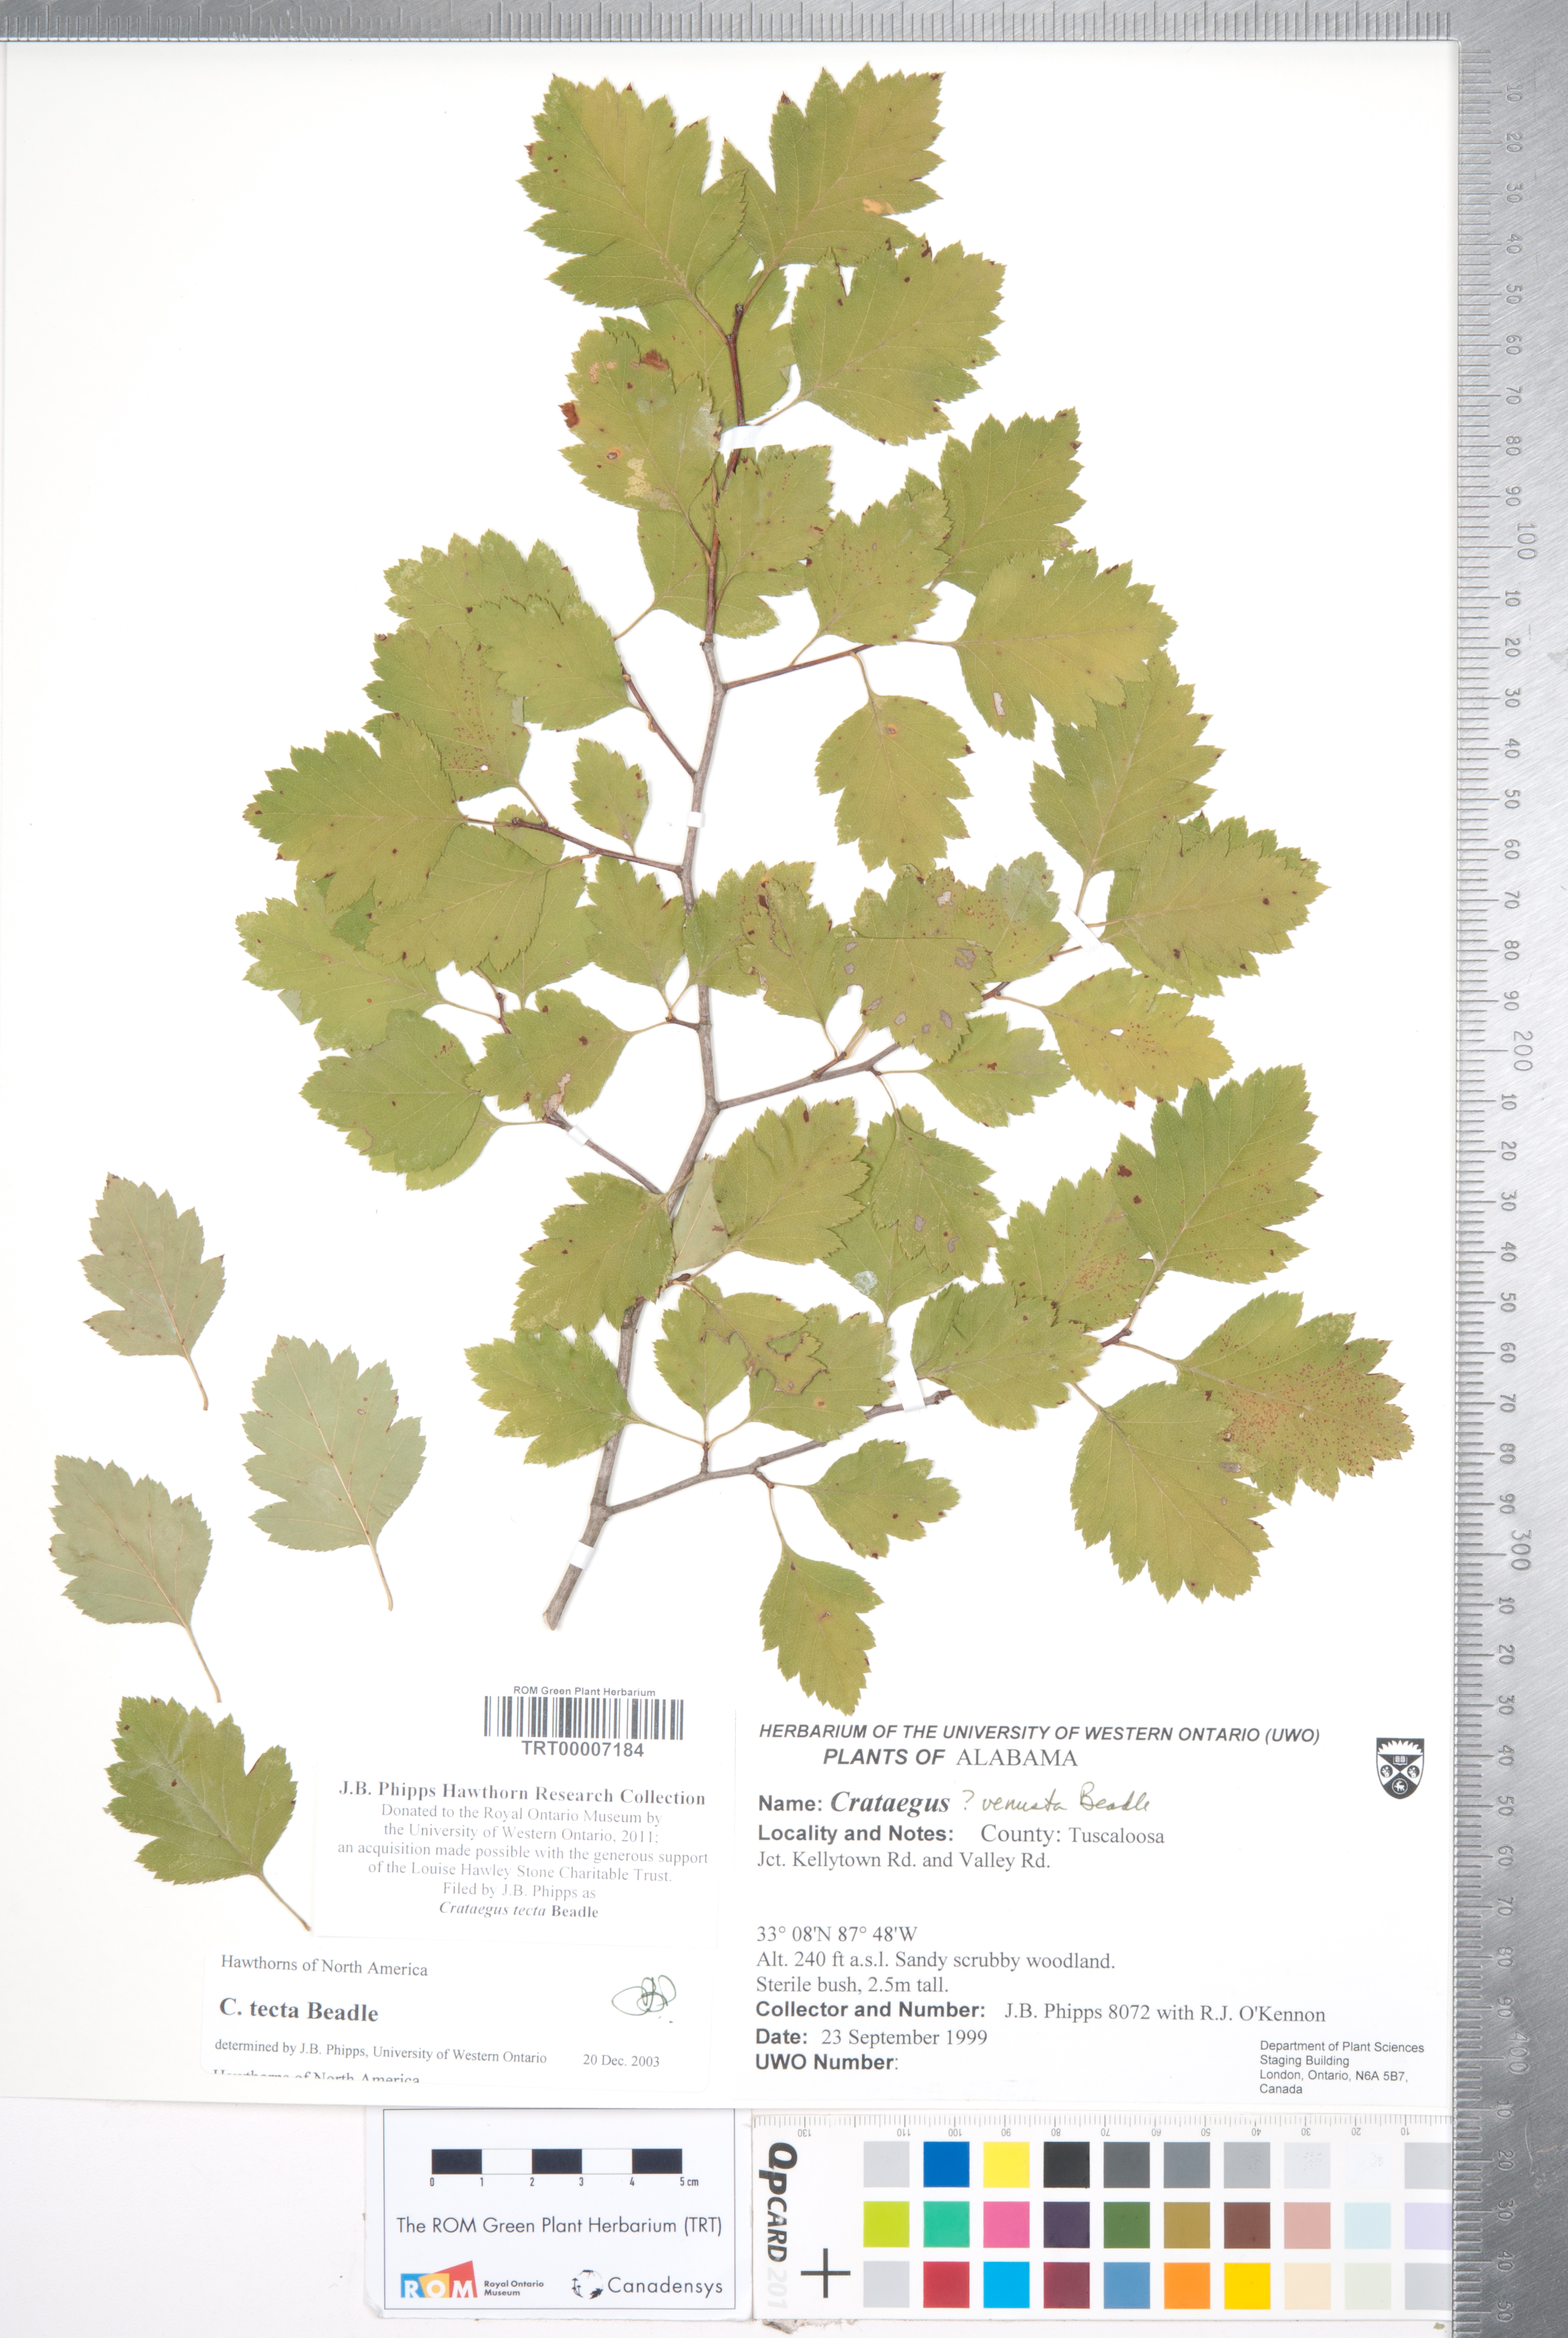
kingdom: Plantae
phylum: Tracheophyta
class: Magnoliopsida
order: Rosales
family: Rosaceae
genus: Crataegus
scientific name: Crataegus pulcherrima
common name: Beautiful hawthorn
